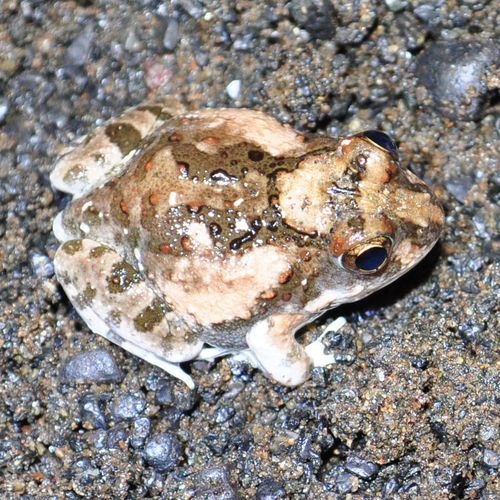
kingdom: Animalia
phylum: Chordata
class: Amphibia
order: Anura
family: Pyxicephalidae
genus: Tomopterna
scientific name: Tomopterna tuberculosa
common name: Rough sand frog
